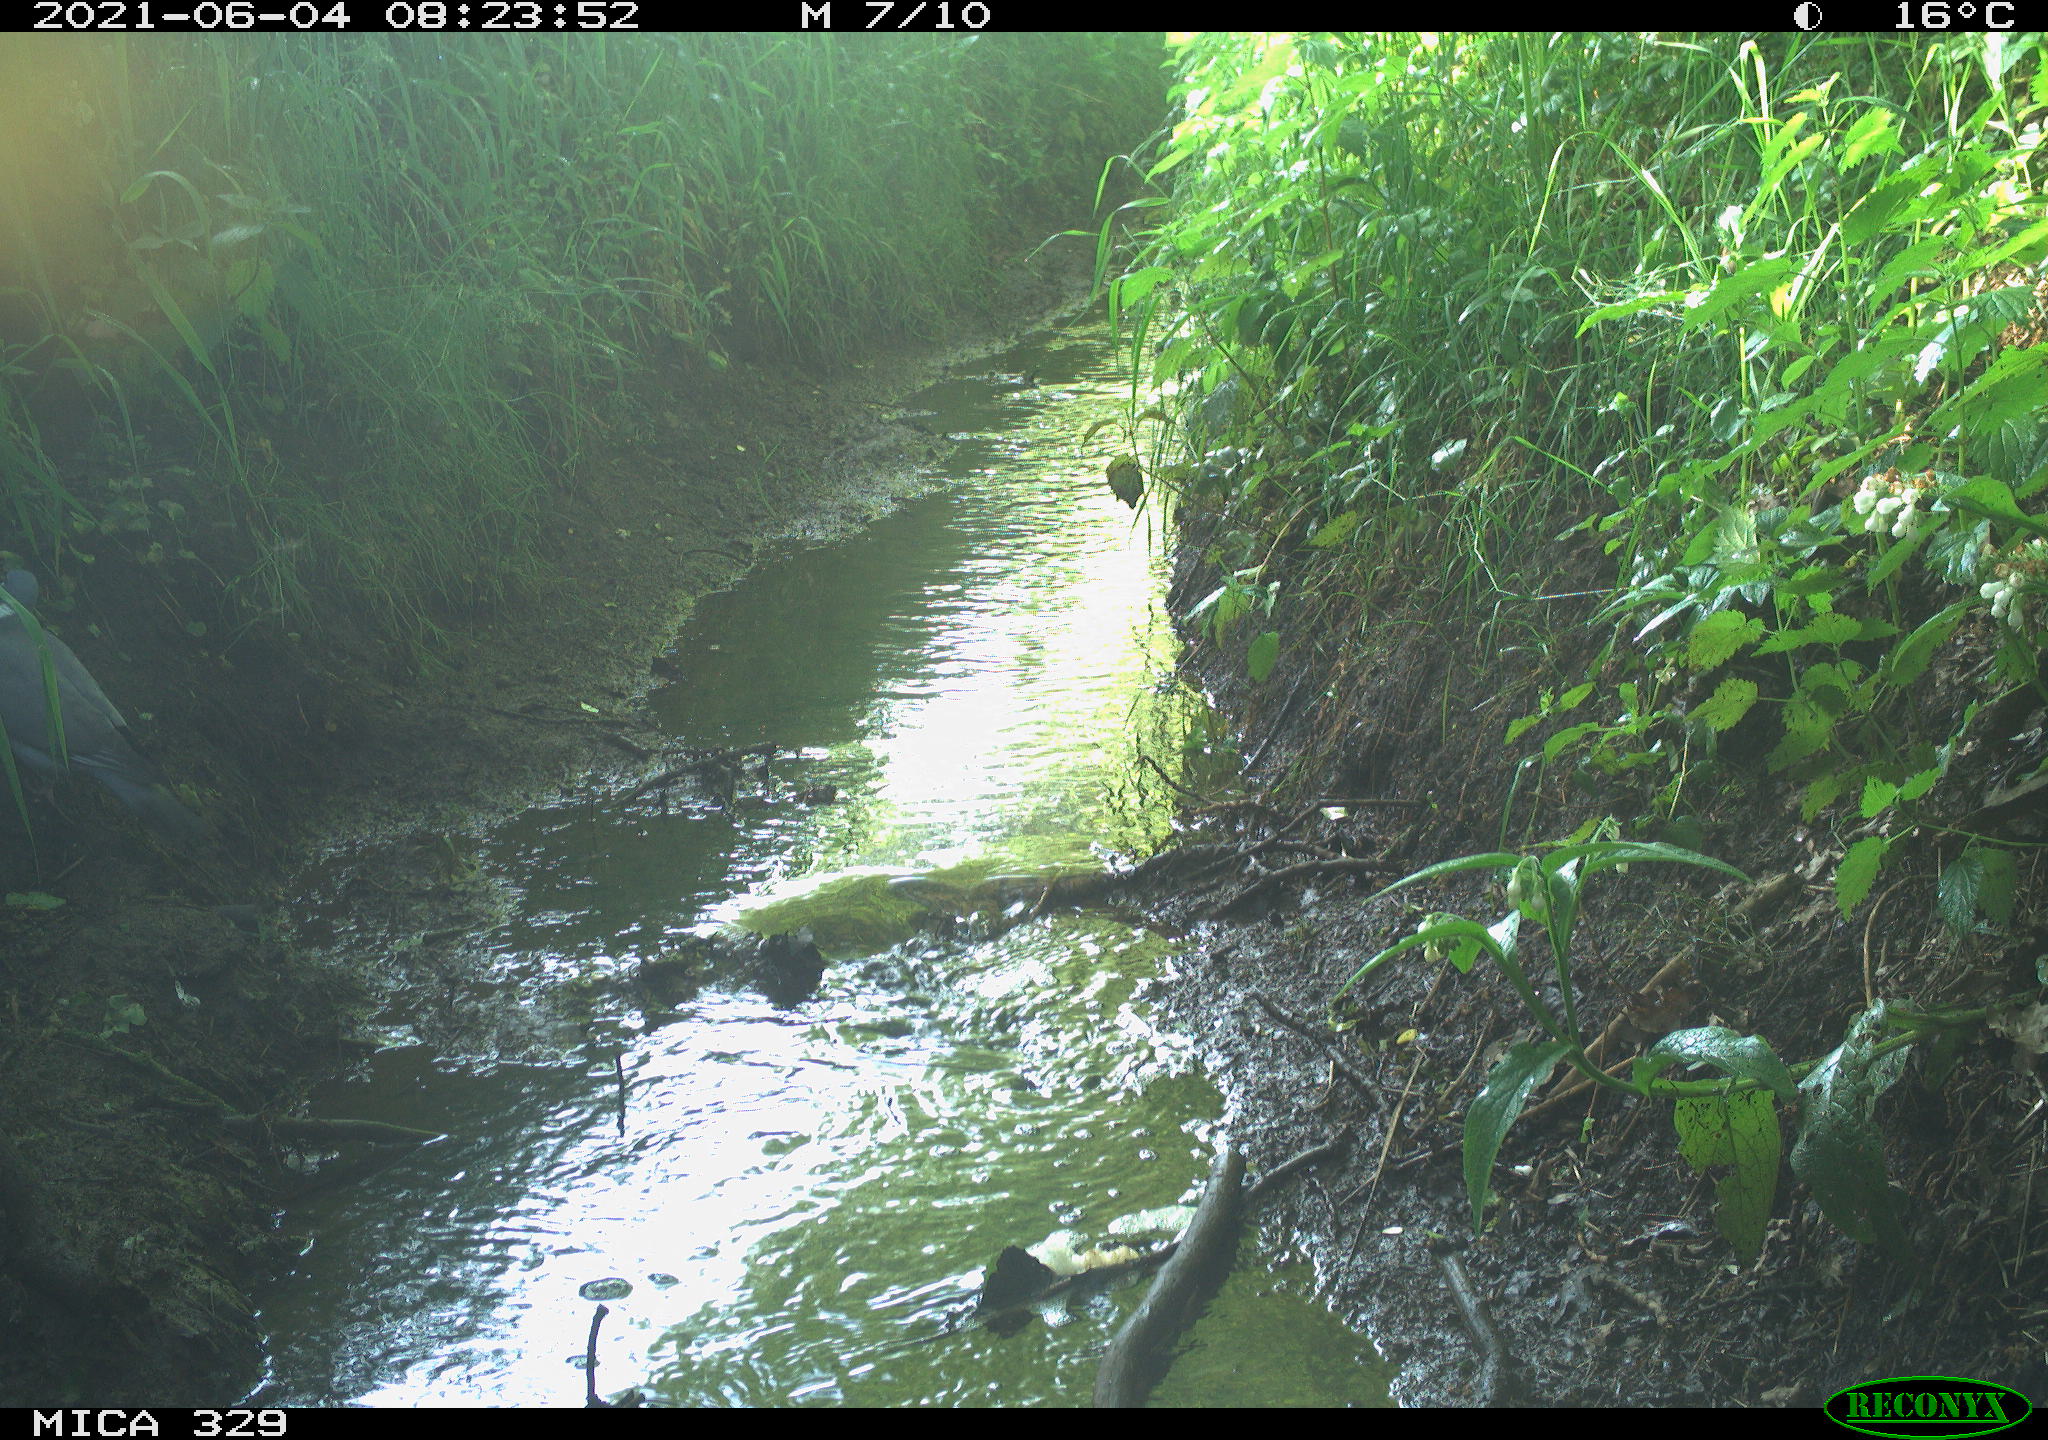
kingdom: Animalia
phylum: Chordata
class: Aves
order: Columbiformes
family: Columbidae
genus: Columba
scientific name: Columba palumbus
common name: Common wood pigeon
